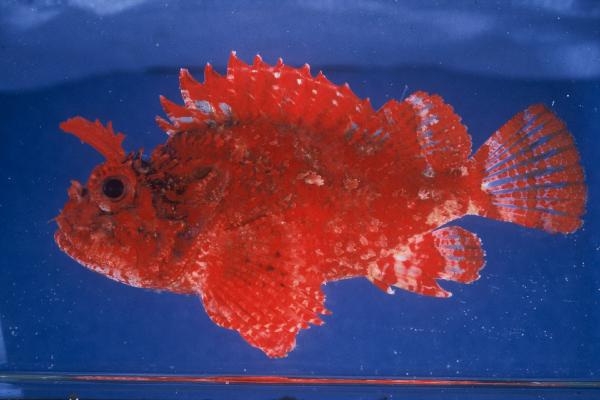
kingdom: Animalia
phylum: Chordata
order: Scorpaeniformes
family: Scorpaenidae
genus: Parascorpaena
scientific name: Parascorpaena mossambica
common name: Mozambique scorpionfish
